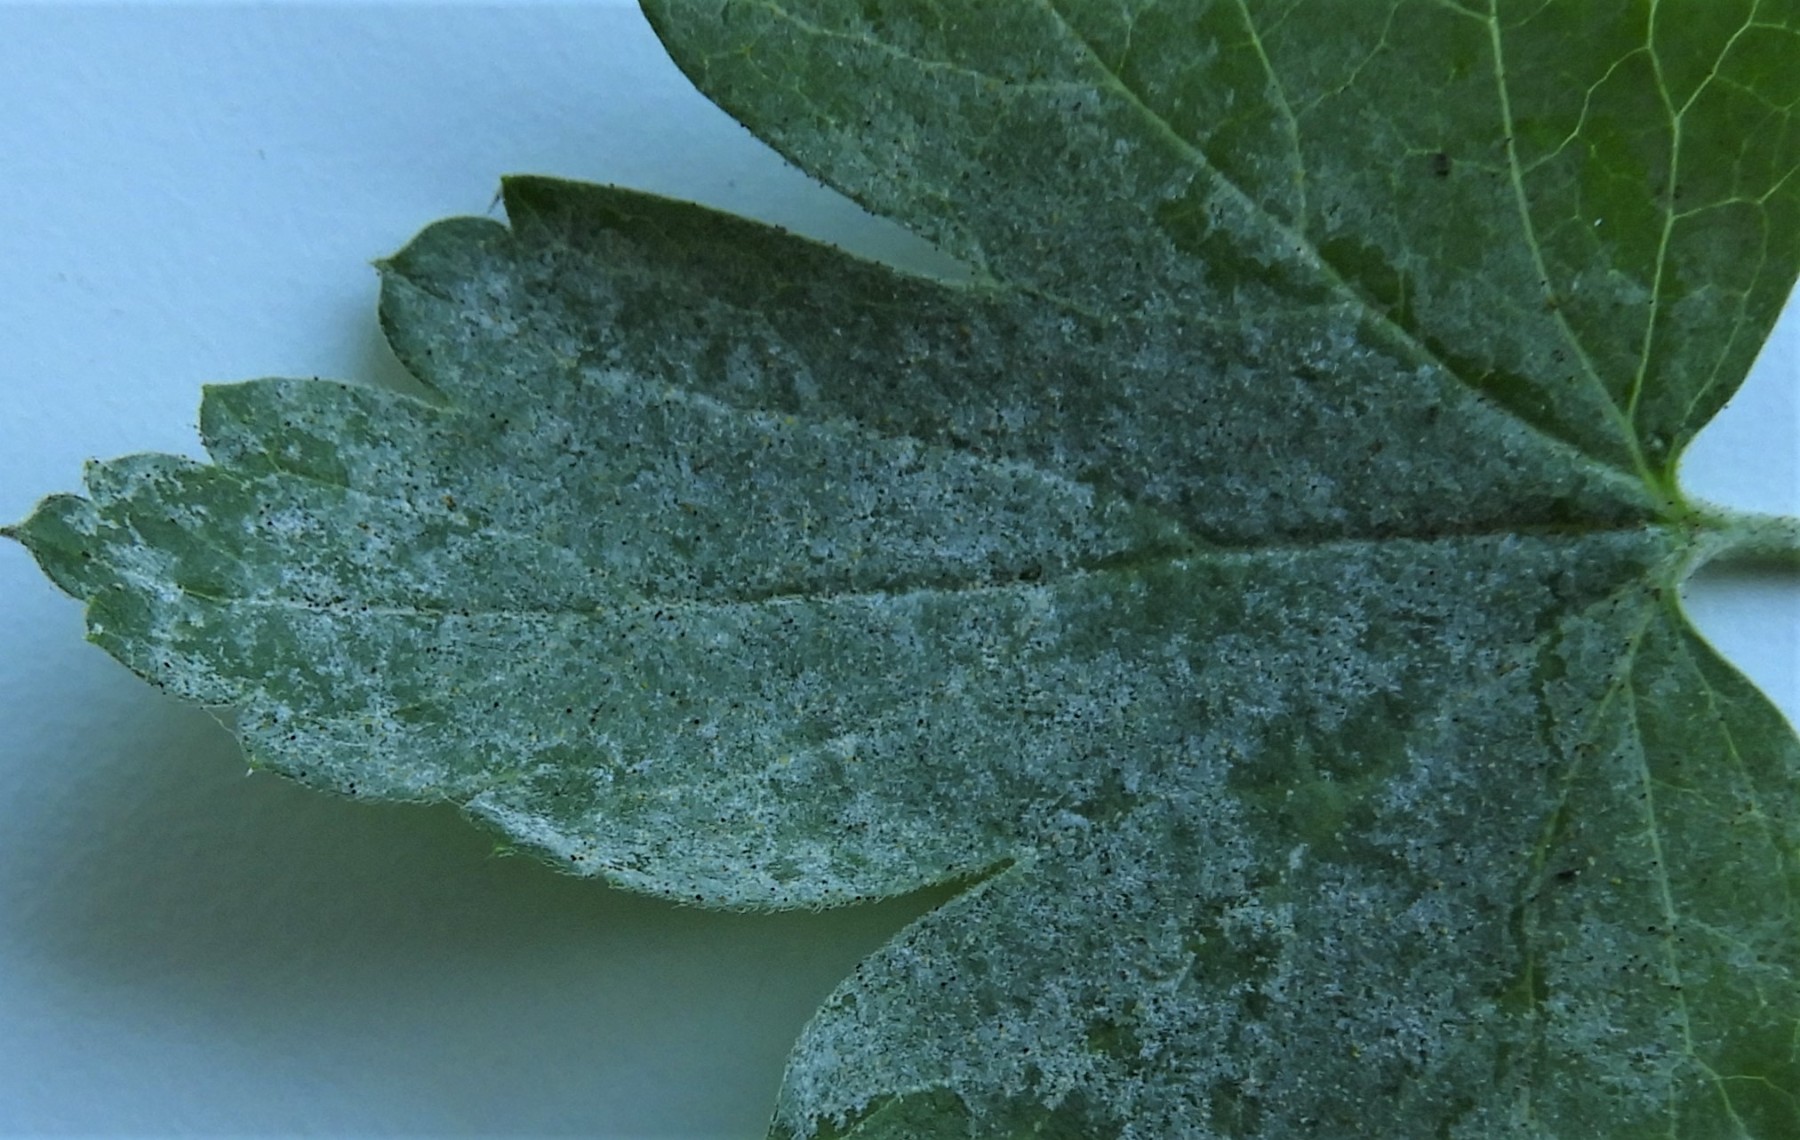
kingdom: Fungi
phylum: Ascomycota
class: Leotiomycetes
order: Helotiales
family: Erysiphaceae
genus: Microsphaera
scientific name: Microsphaera grossulariae
